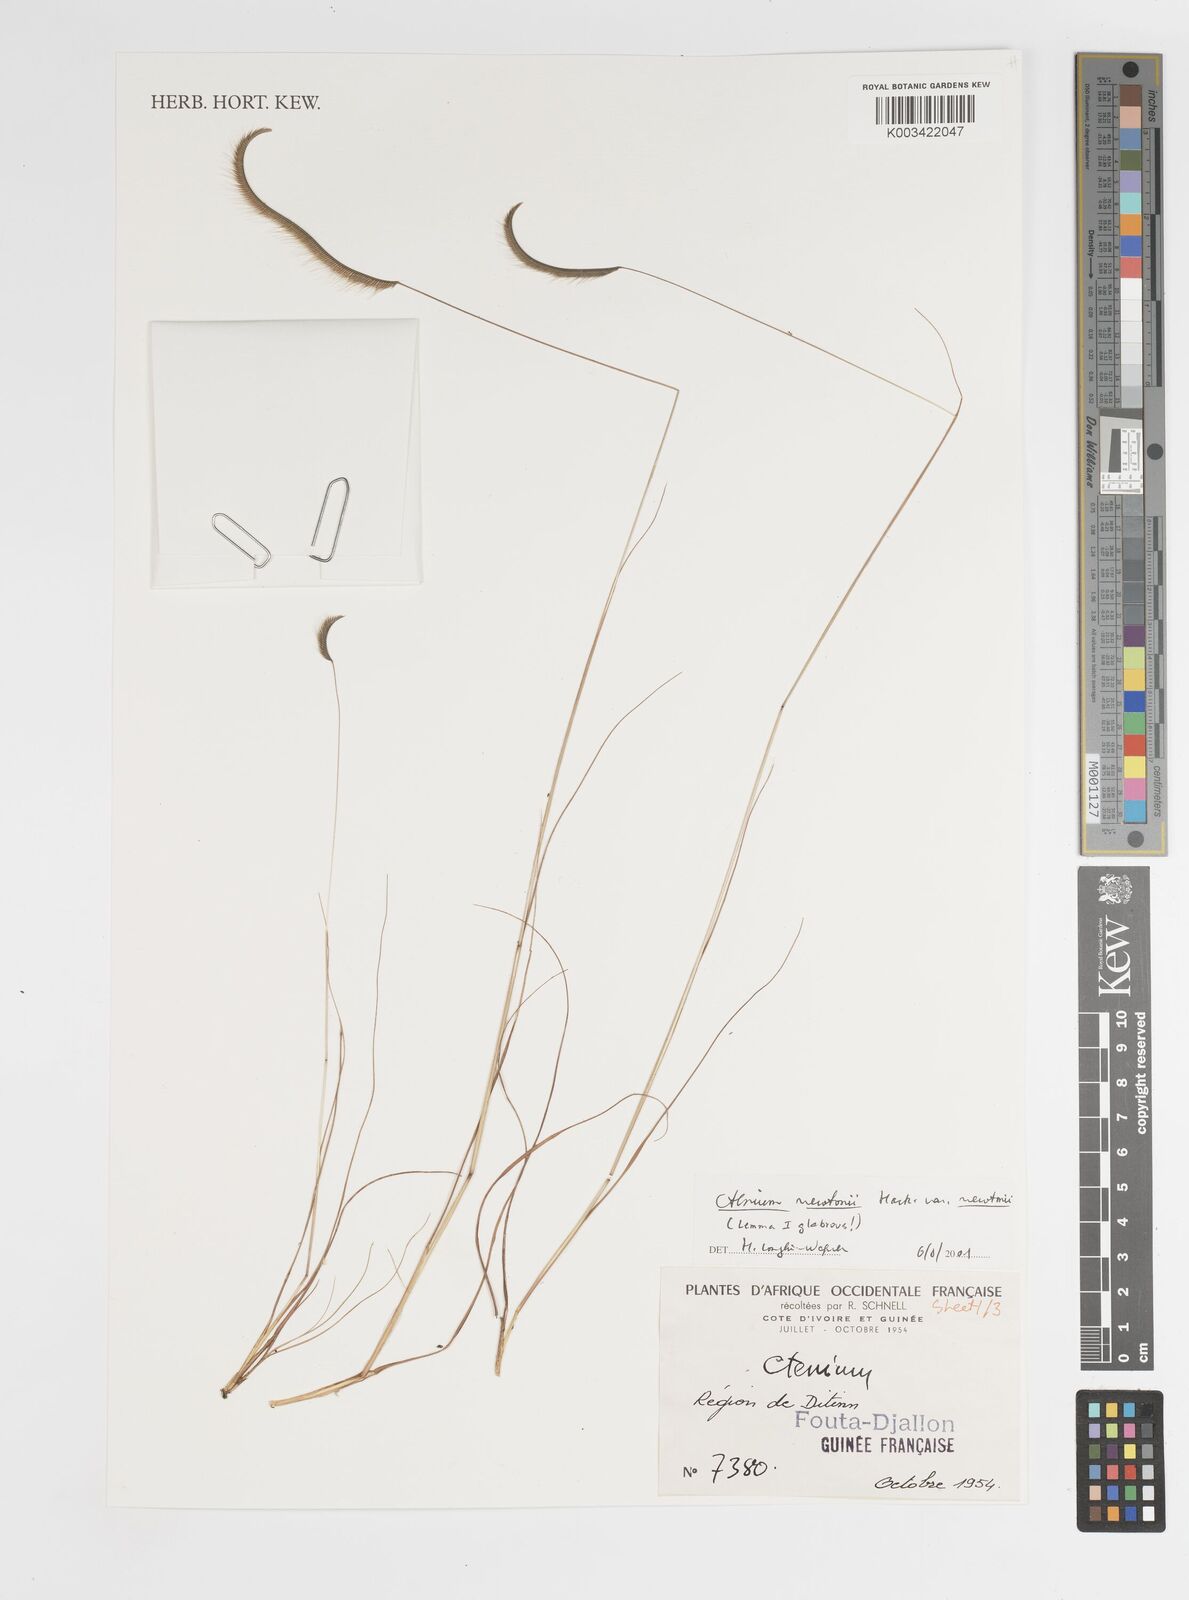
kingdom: Plantae
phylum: Tracheophyta
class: Liliopsida
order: Poales
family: Poaceae
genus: Ctenium
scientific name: Ctenium newtonii
